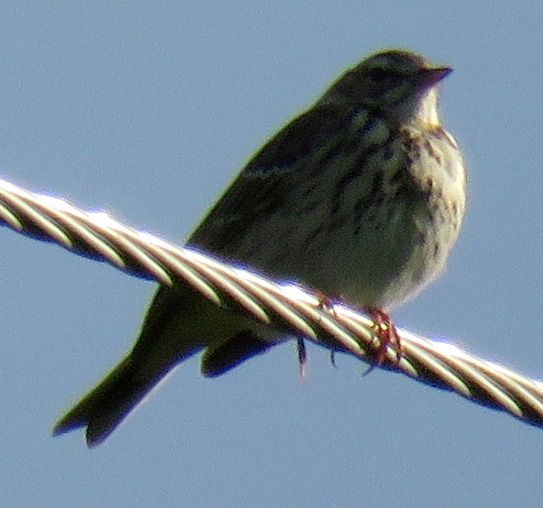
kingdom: Animalia
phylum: Chordata
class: Aves
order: Passeriformes
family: Motacillidae
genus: Anthus
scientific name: Anthus trivialis
